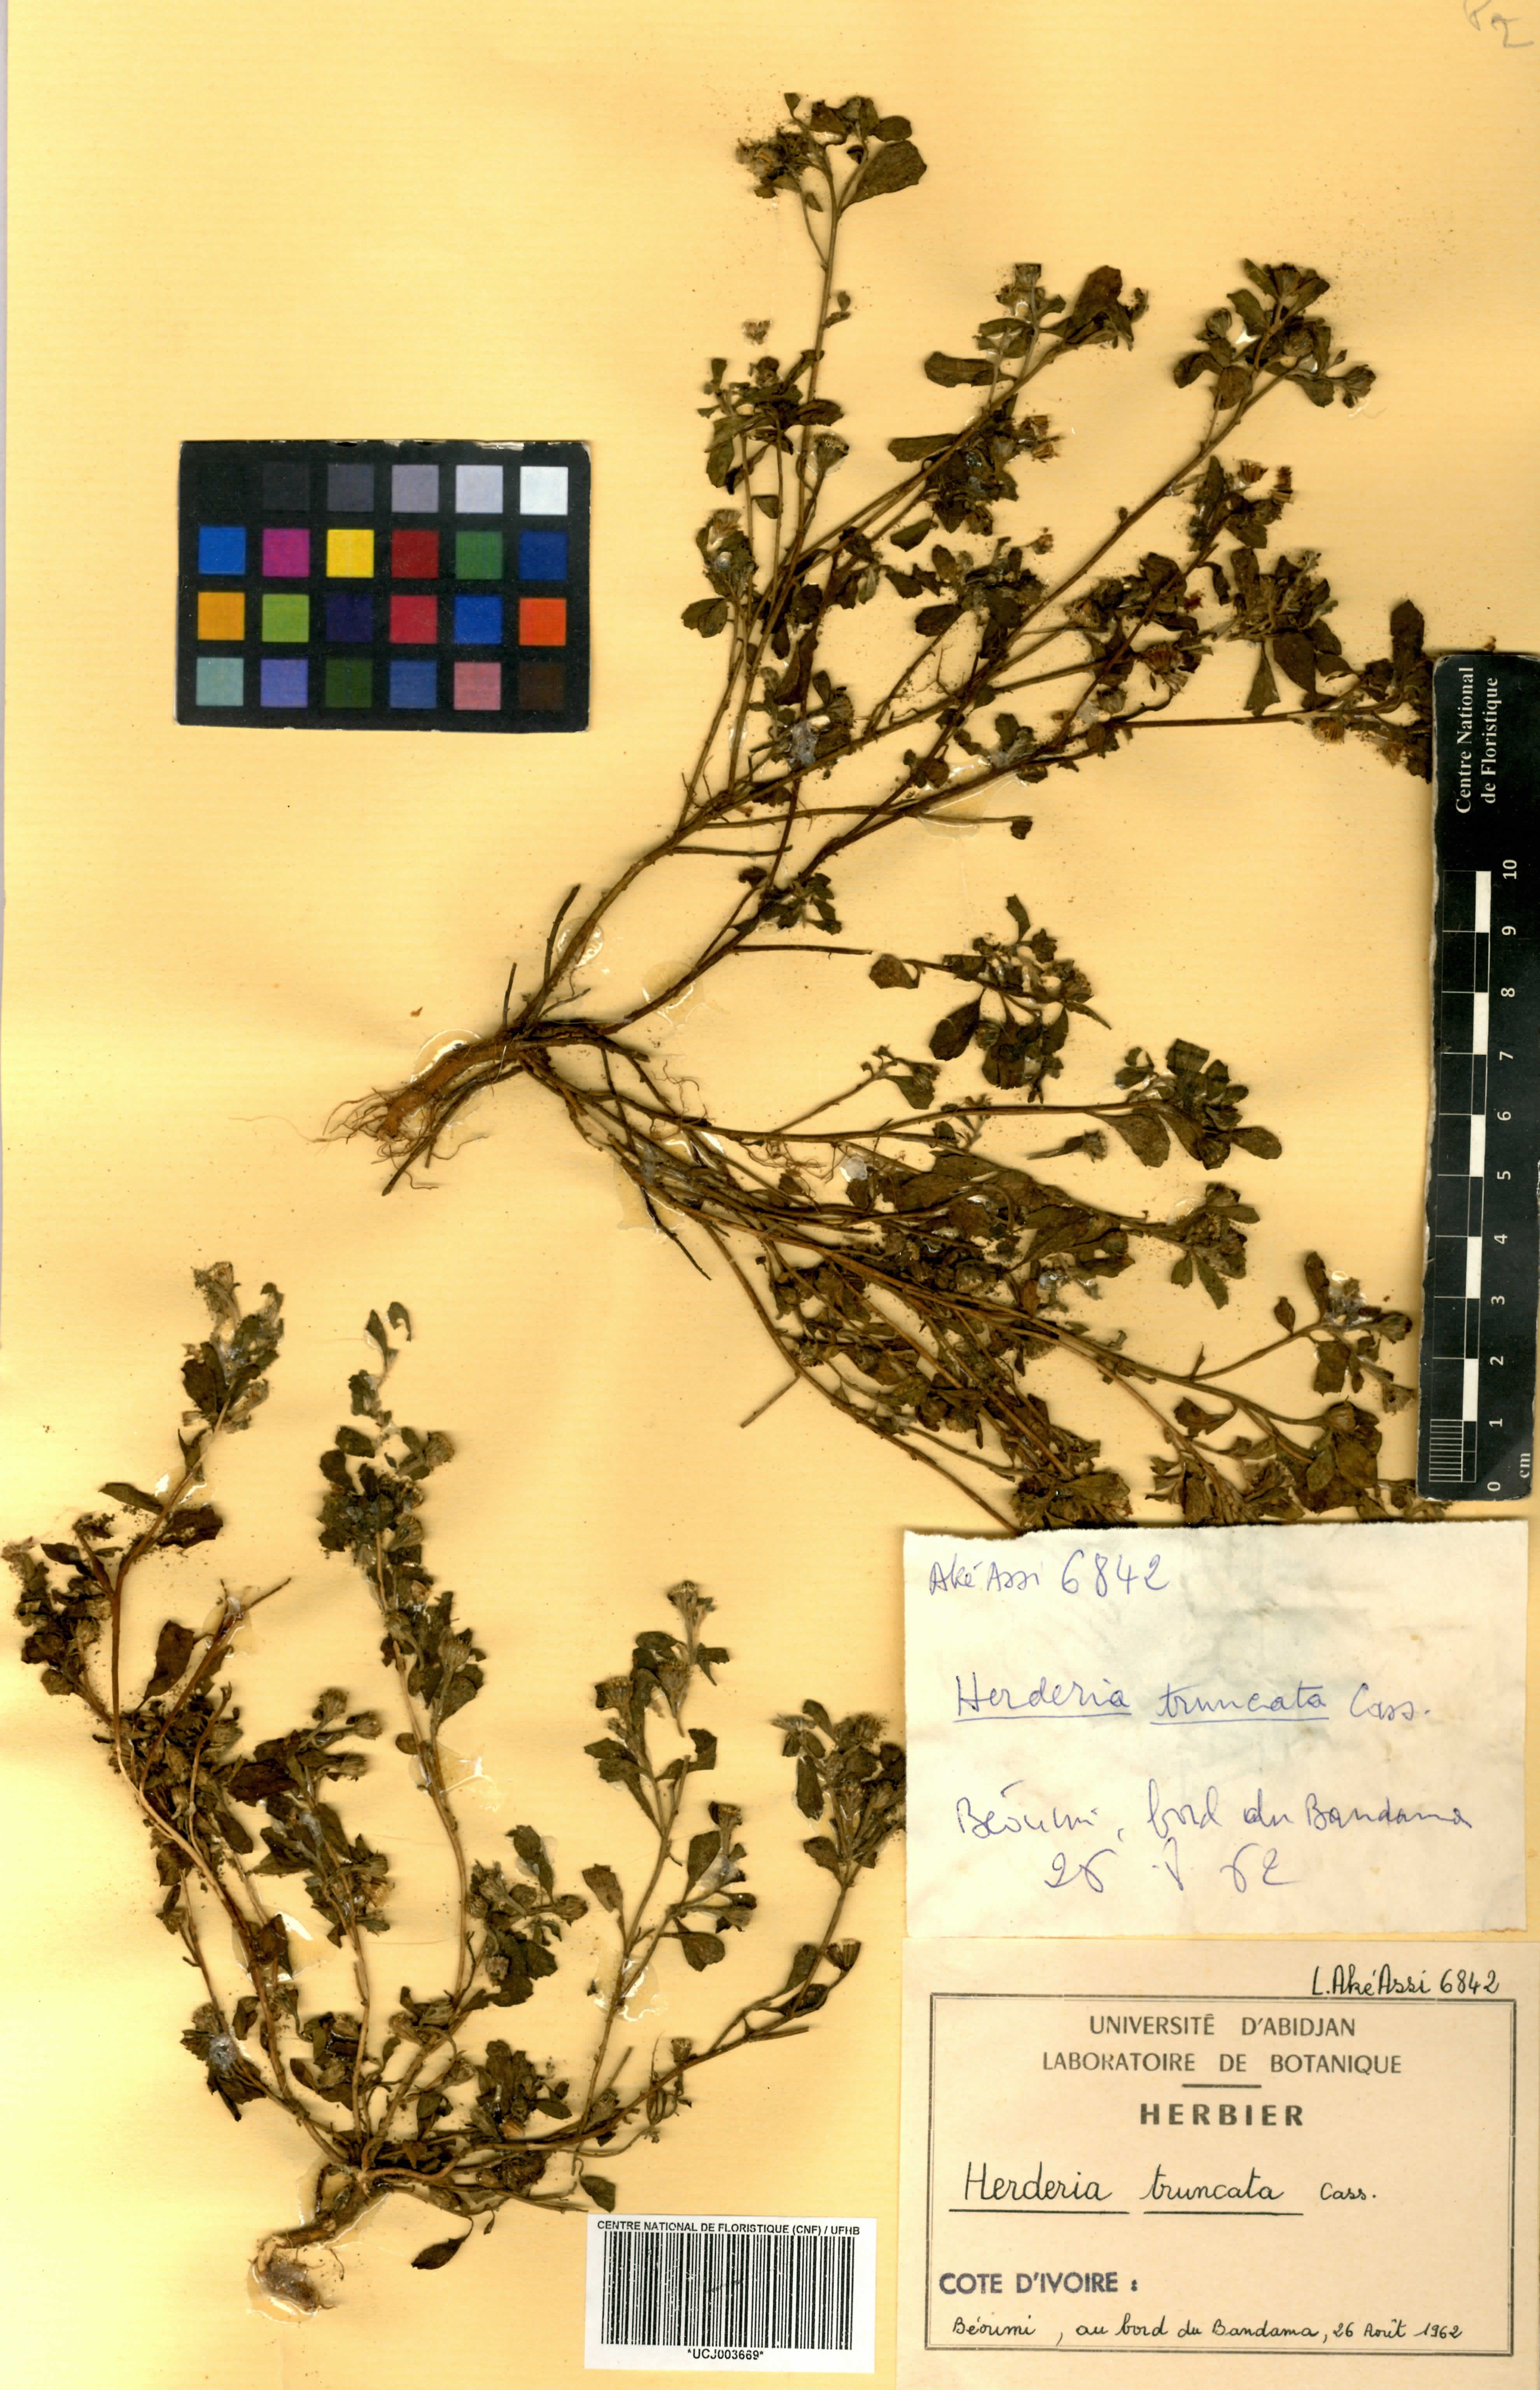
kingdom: Plantae
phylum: Tracheophyta
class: Magnoliopsida
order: Asterales
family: Asteraceae
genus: Herderia
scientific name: Herderia truncata
